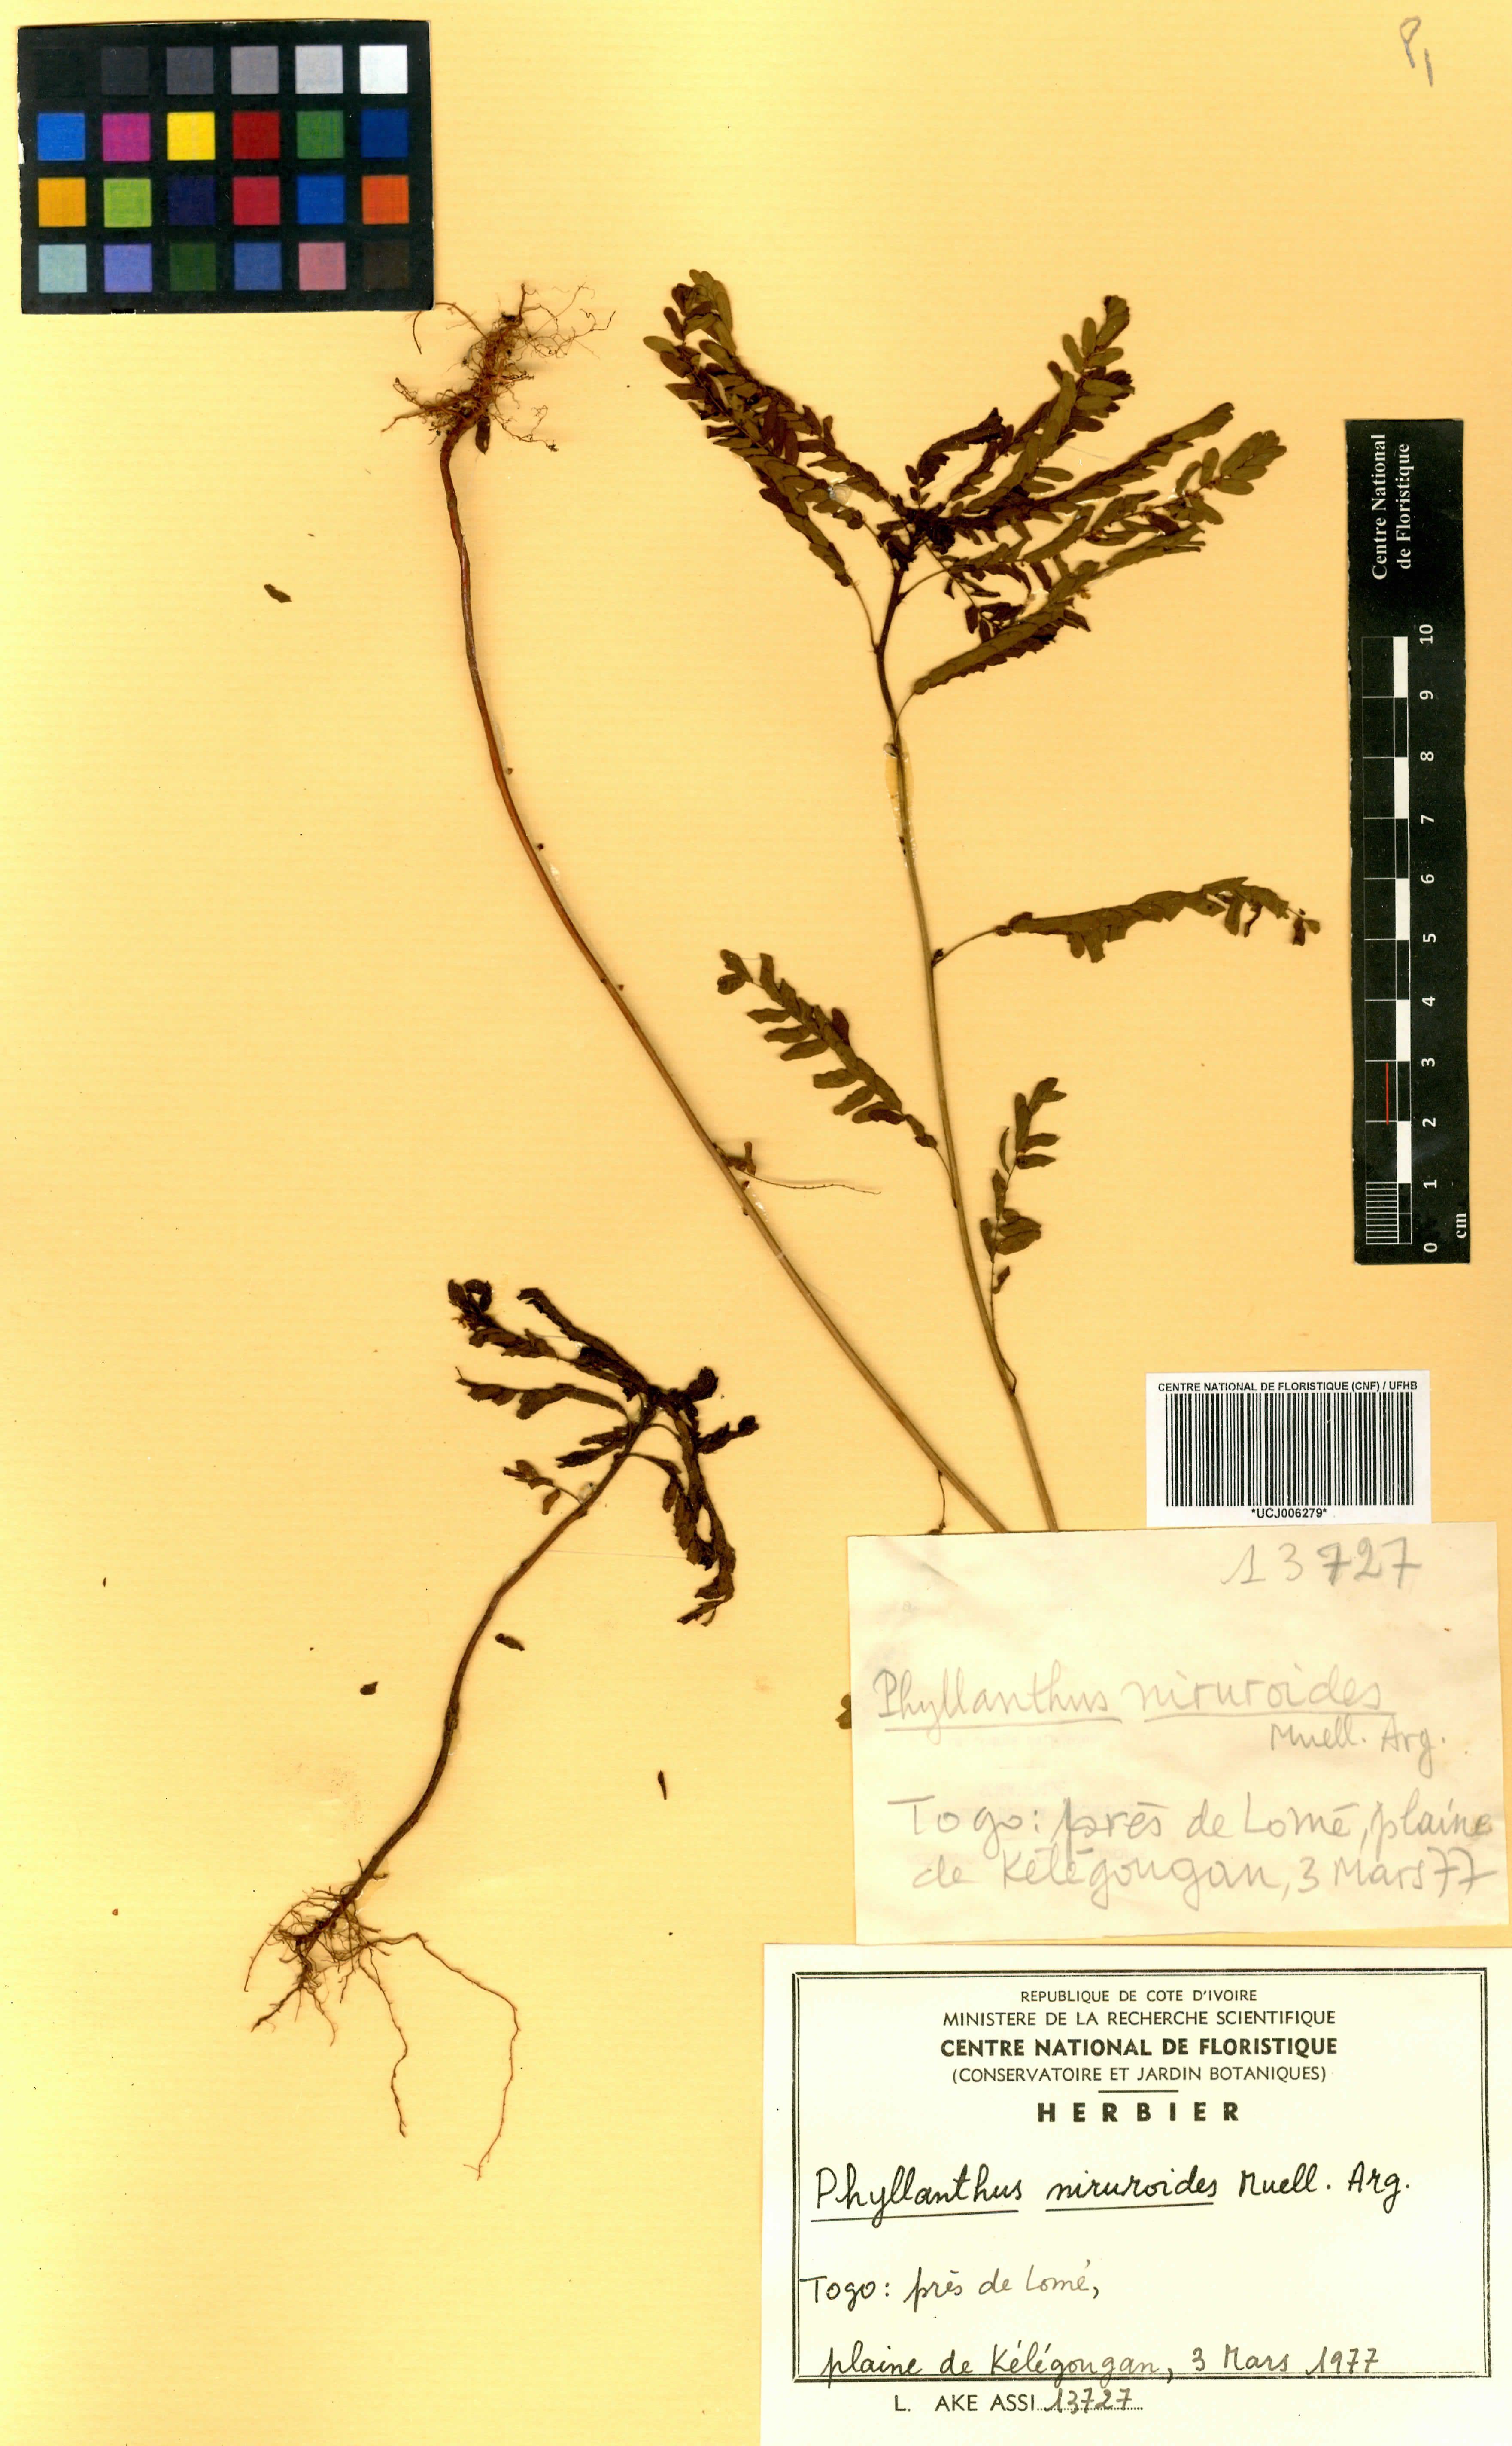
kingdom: Plantae
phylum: Tracheophyta
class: Magnoliopsida
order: Malpighiales
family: Phyllanthaceae
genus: Phyllanthus
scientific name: Phyllanthus niruroides
